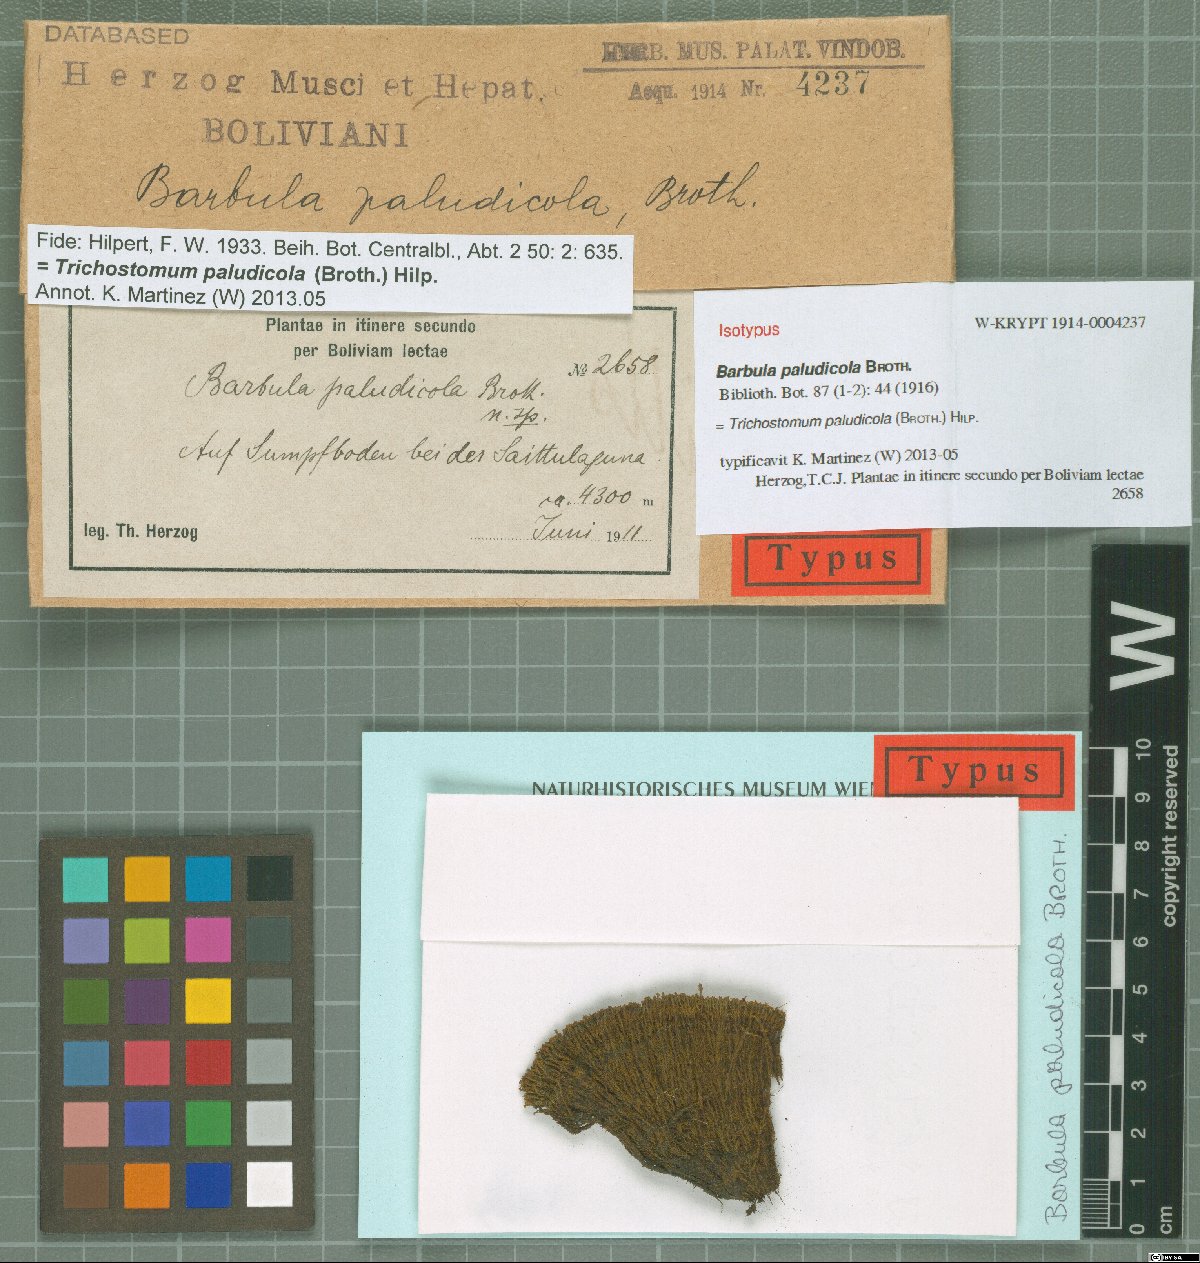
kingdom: Plantae
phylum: Bryophyta
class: Bryopsida
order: Pottiales
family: Pottiaceae
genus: Trichostomum
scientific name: Trichostomum paludicola
